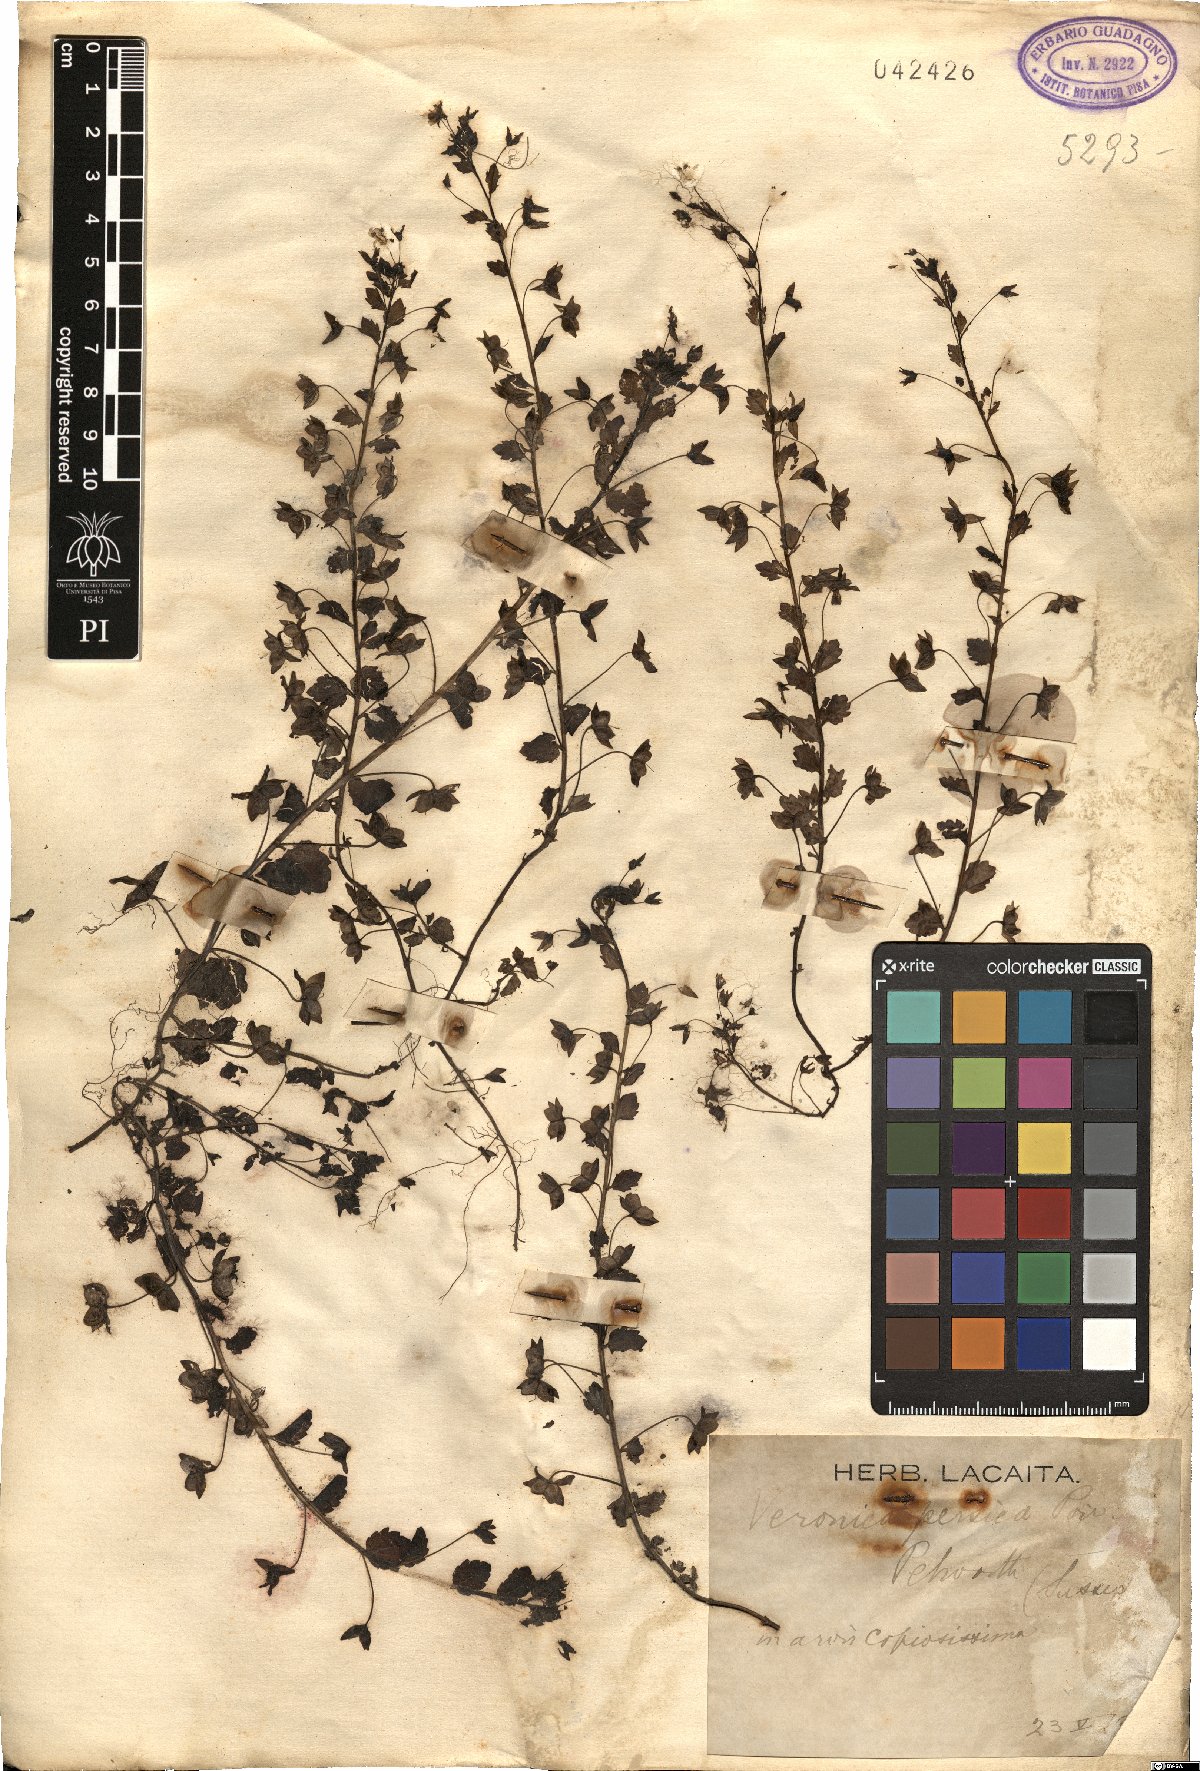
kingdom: Plantae
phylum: Tracheophyta
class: Magnoliopsida
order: Lamiales
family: Plantaginaceae
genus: Veronica
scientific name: Veronica persica
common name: Common field-speedwell
